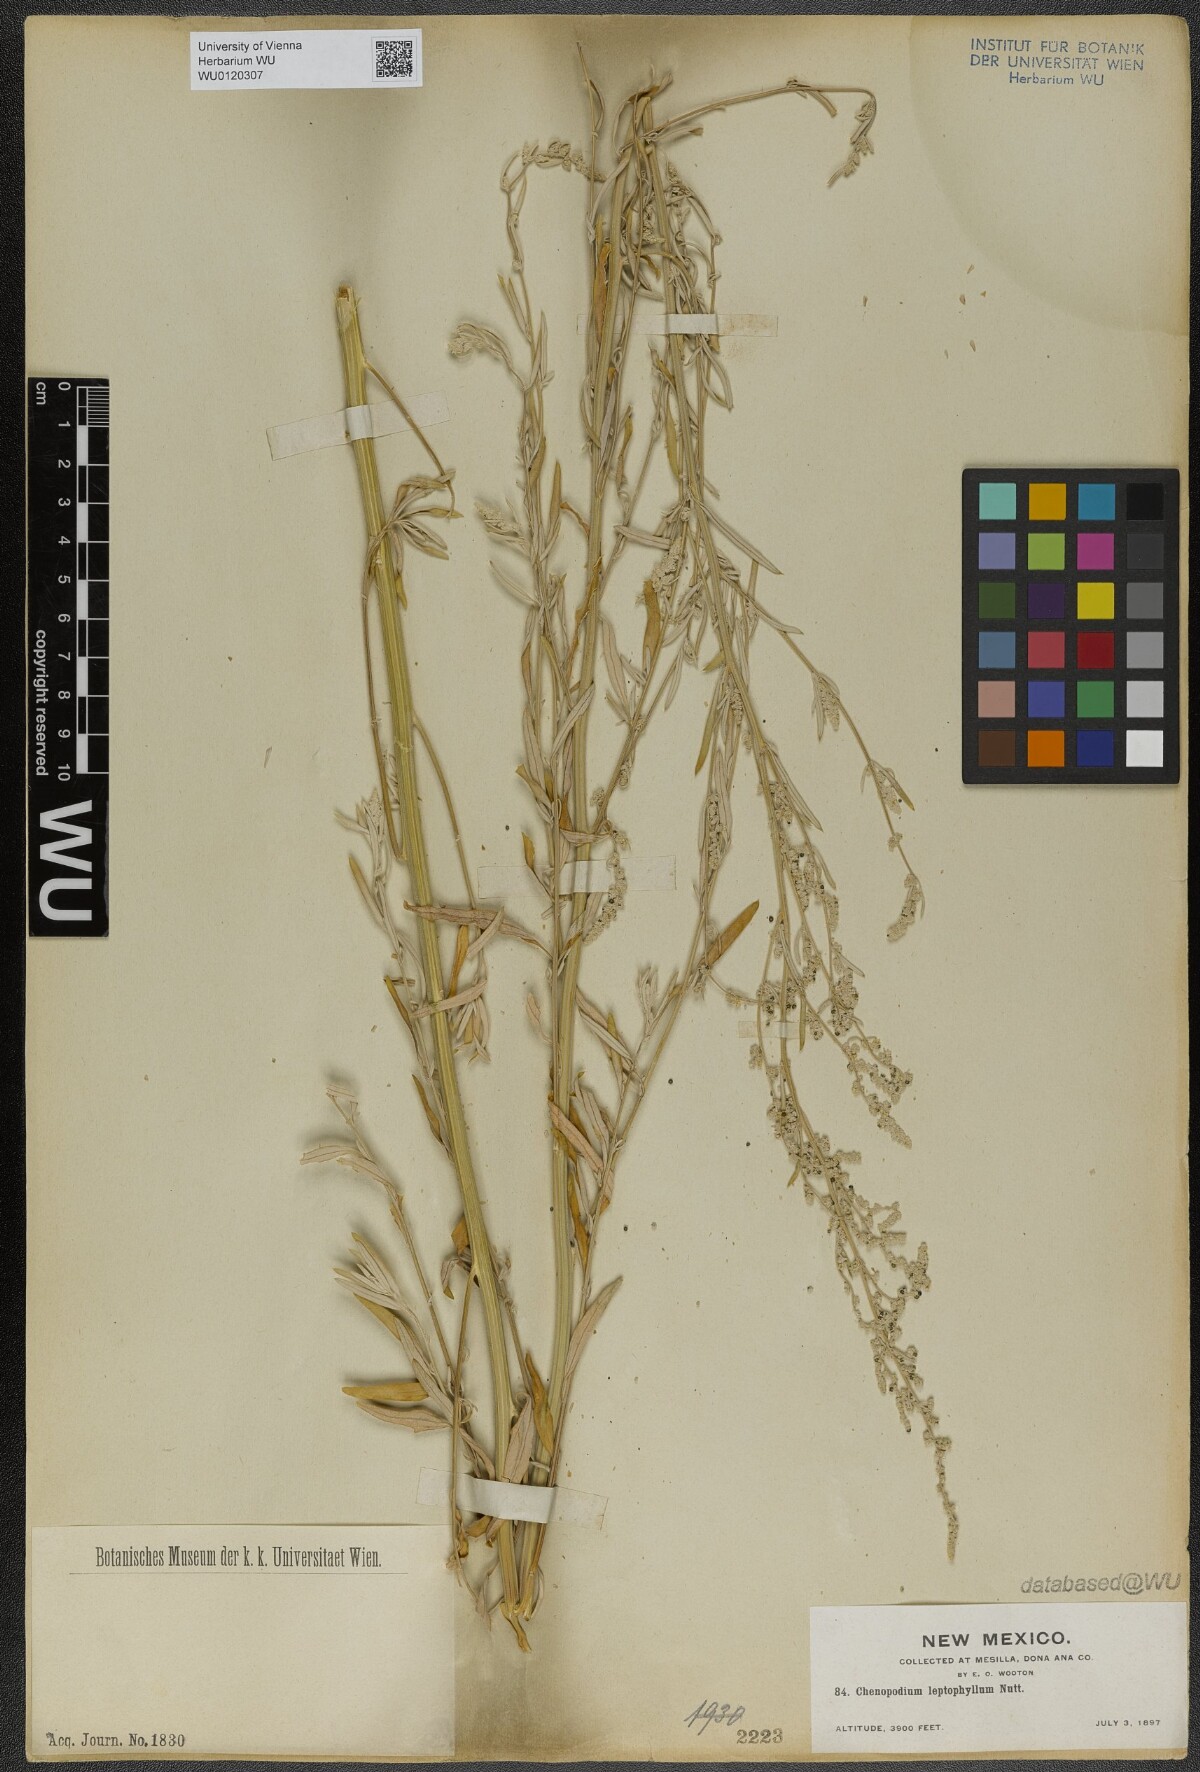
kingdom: Plantae
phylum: Tracheophyta
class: Magnoliopsida
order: Caryophyllales
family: Amaranthaceae
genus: Chenopodium
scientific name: Chenopodium leptophyllum
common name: Narrow-leaf goosefoot
